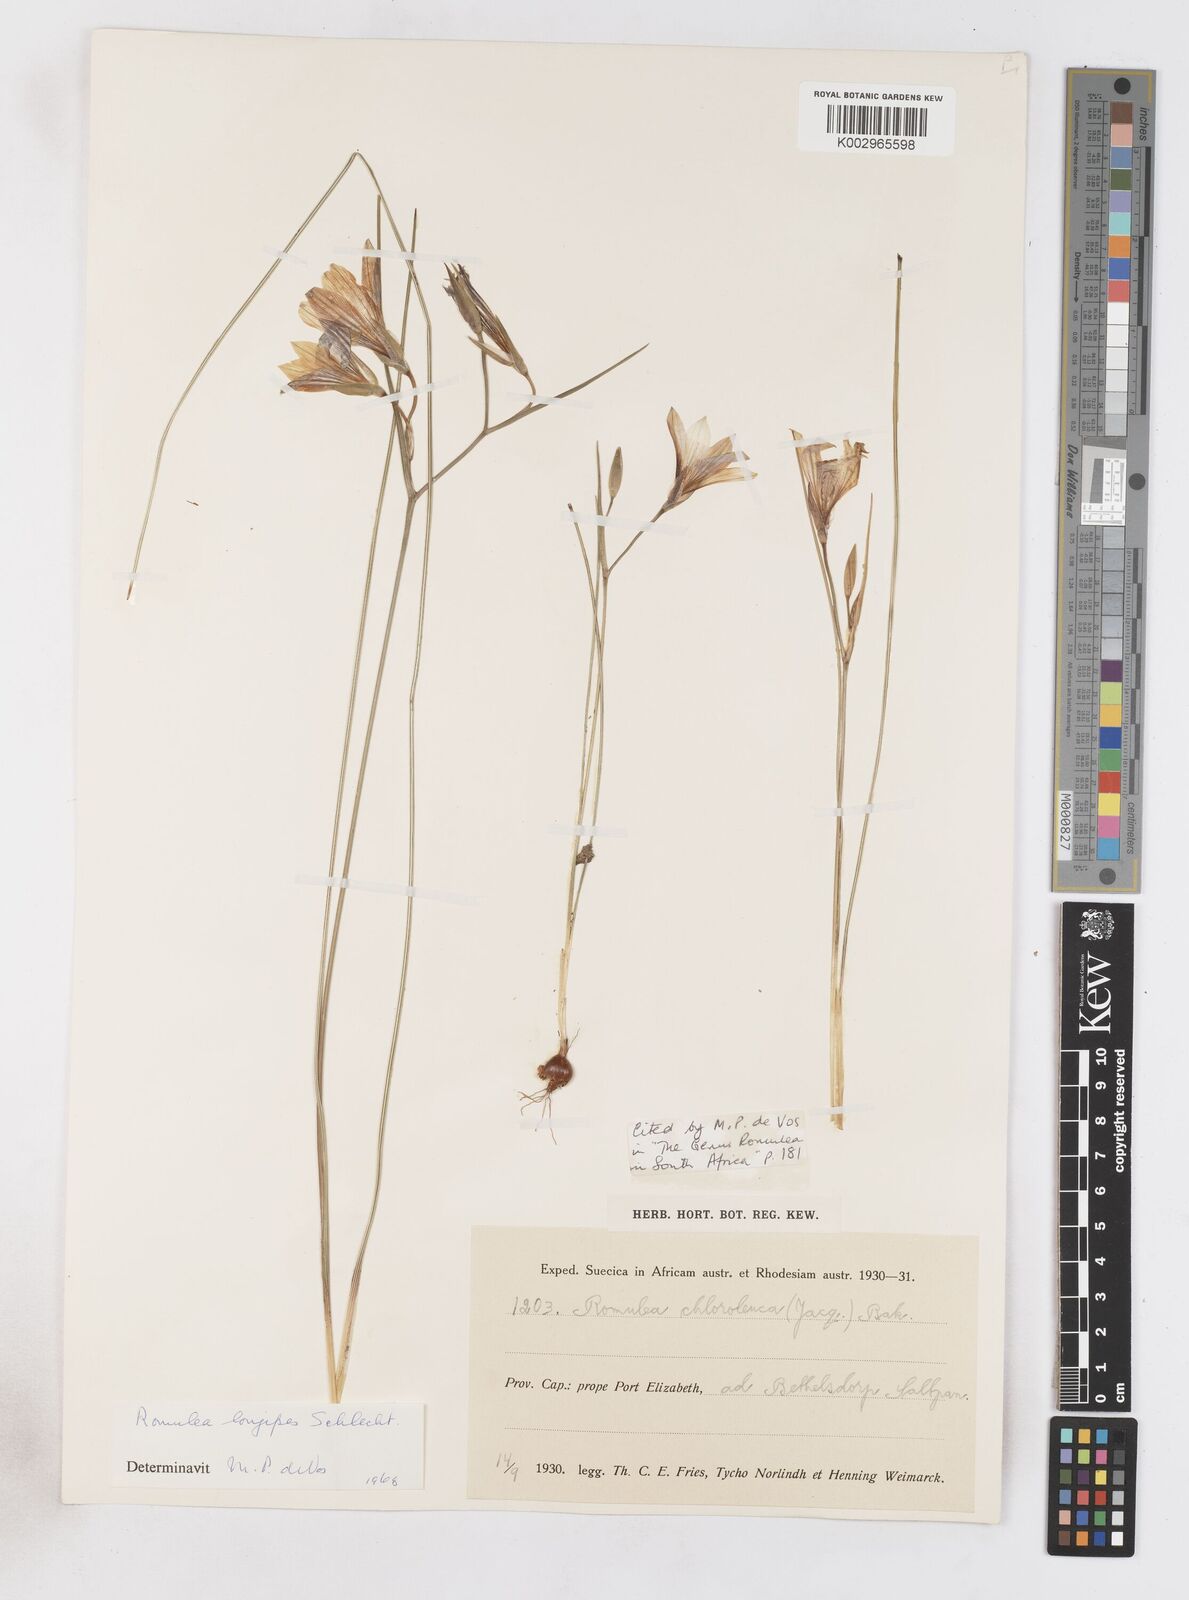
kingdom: Plantae
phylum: Tracheophyta
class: Liliopsida
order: Asparagales
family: Iridaceae
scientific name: Iridaceae
